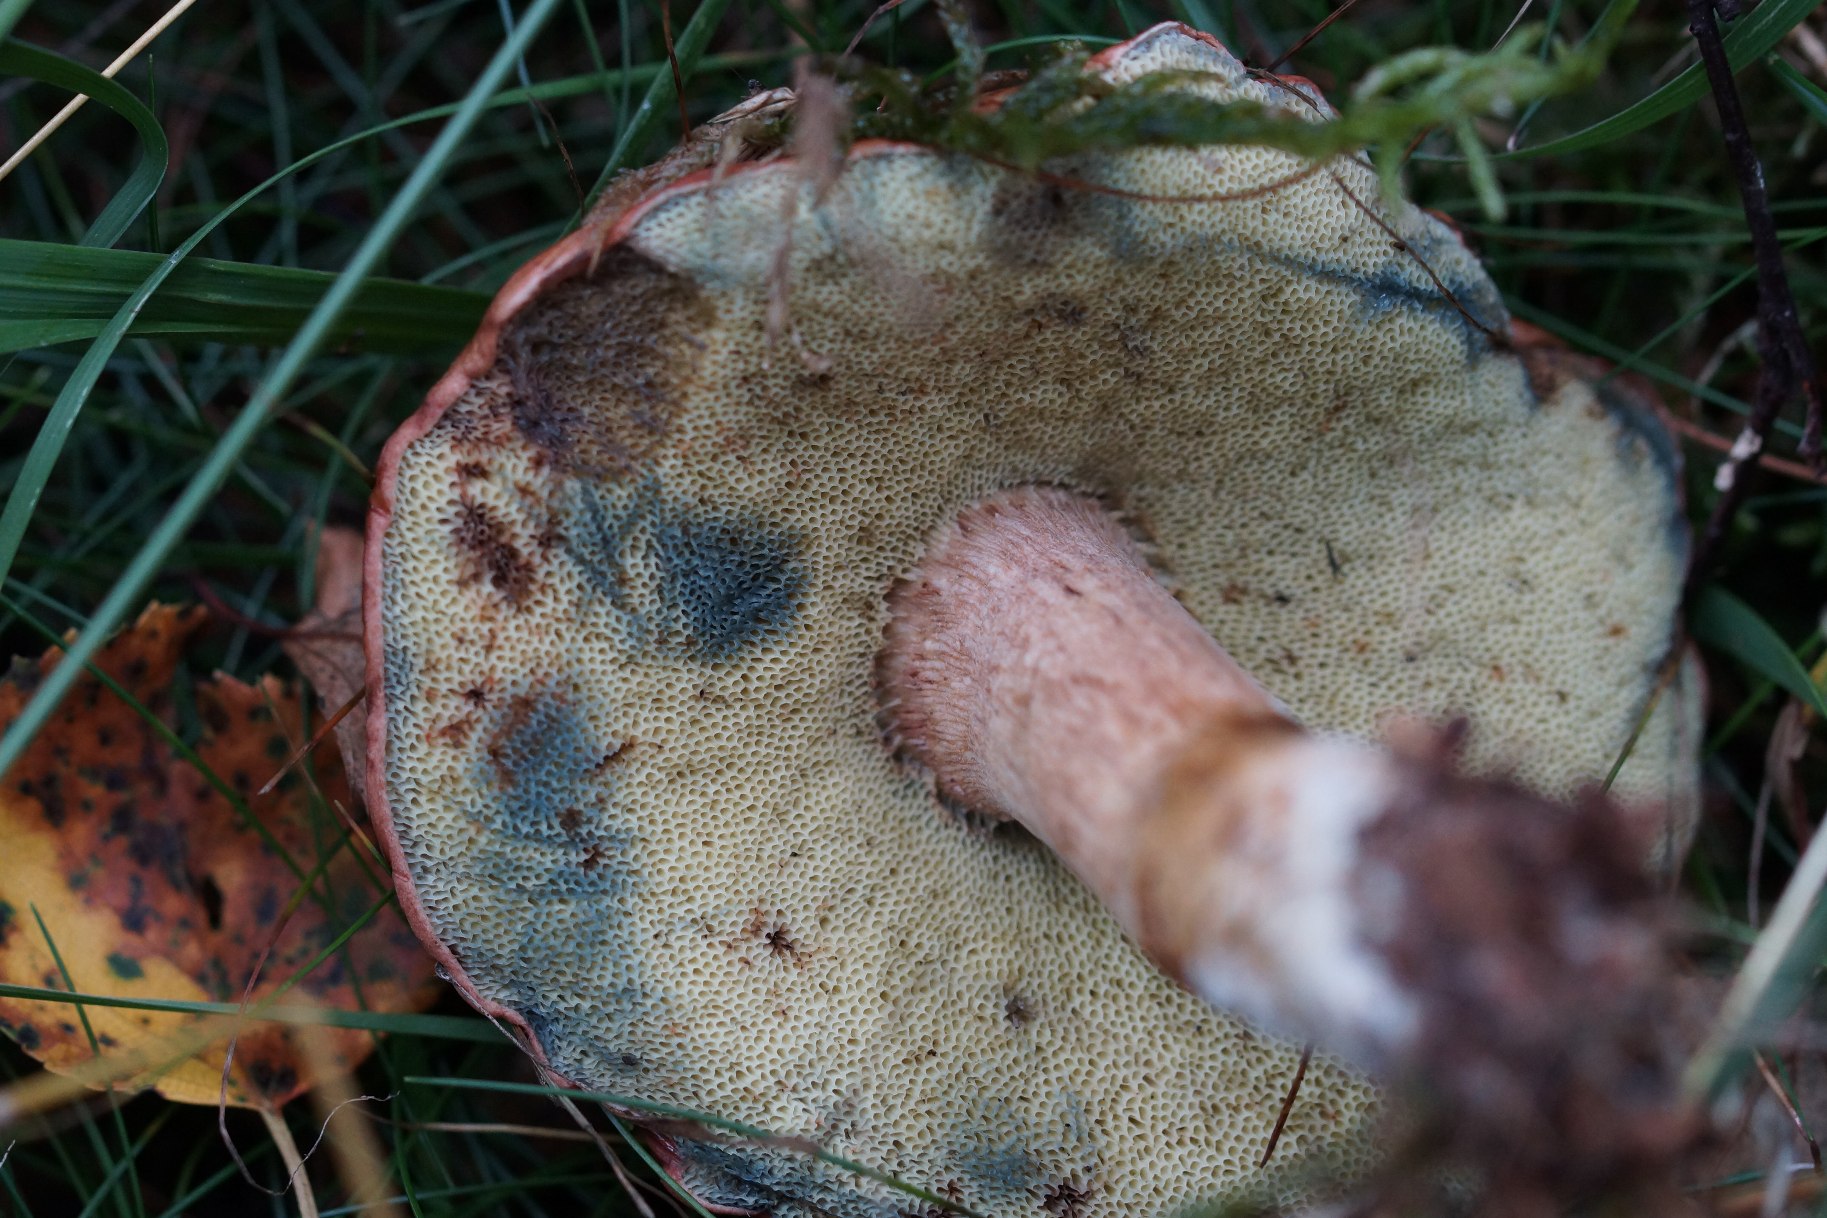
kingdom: Fungi
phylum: Basidiomycota
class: Agaricomycetes
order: Boletales
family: Boletaceae
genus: Imleria
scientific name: Imleria badia
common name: Brunstokket rørhat
